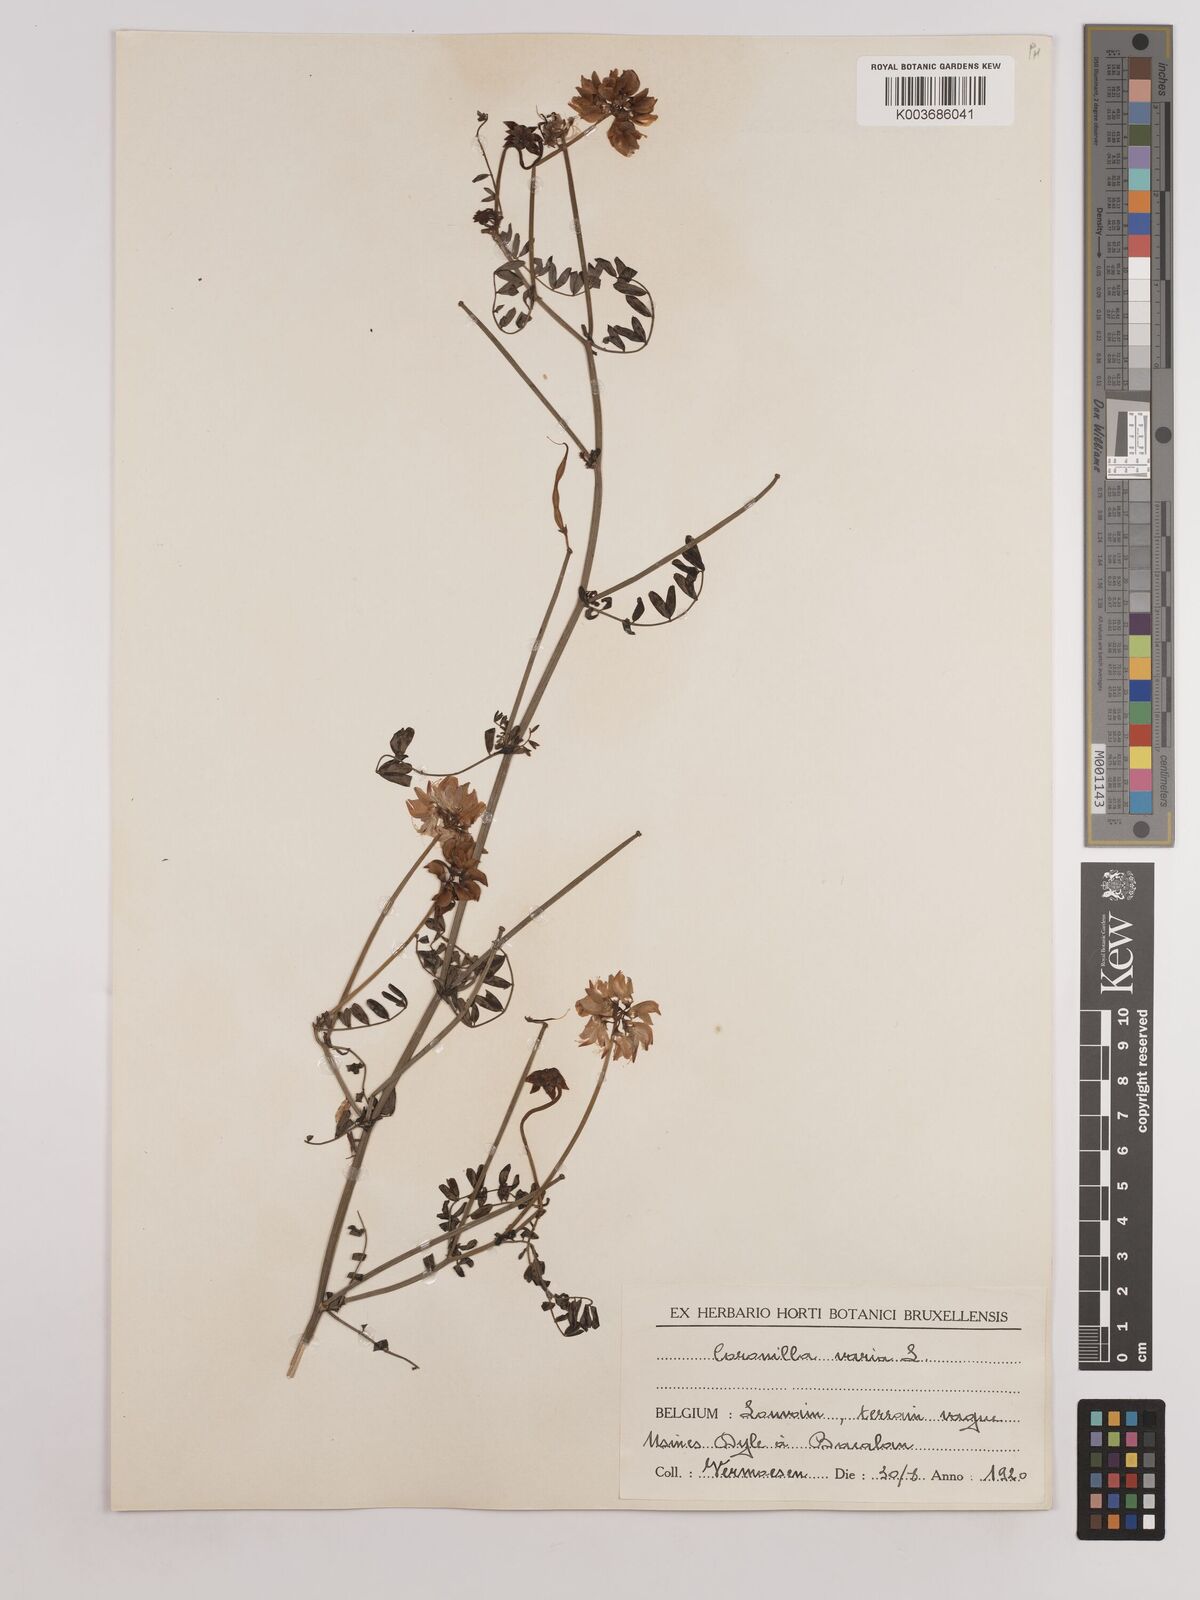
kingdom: Plantae
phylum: Tracheophyta
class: Magnoliopsida
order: Fabales
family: Fabaceae
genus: Coronilla
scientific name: Coronilla varia
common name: Crownvetch
